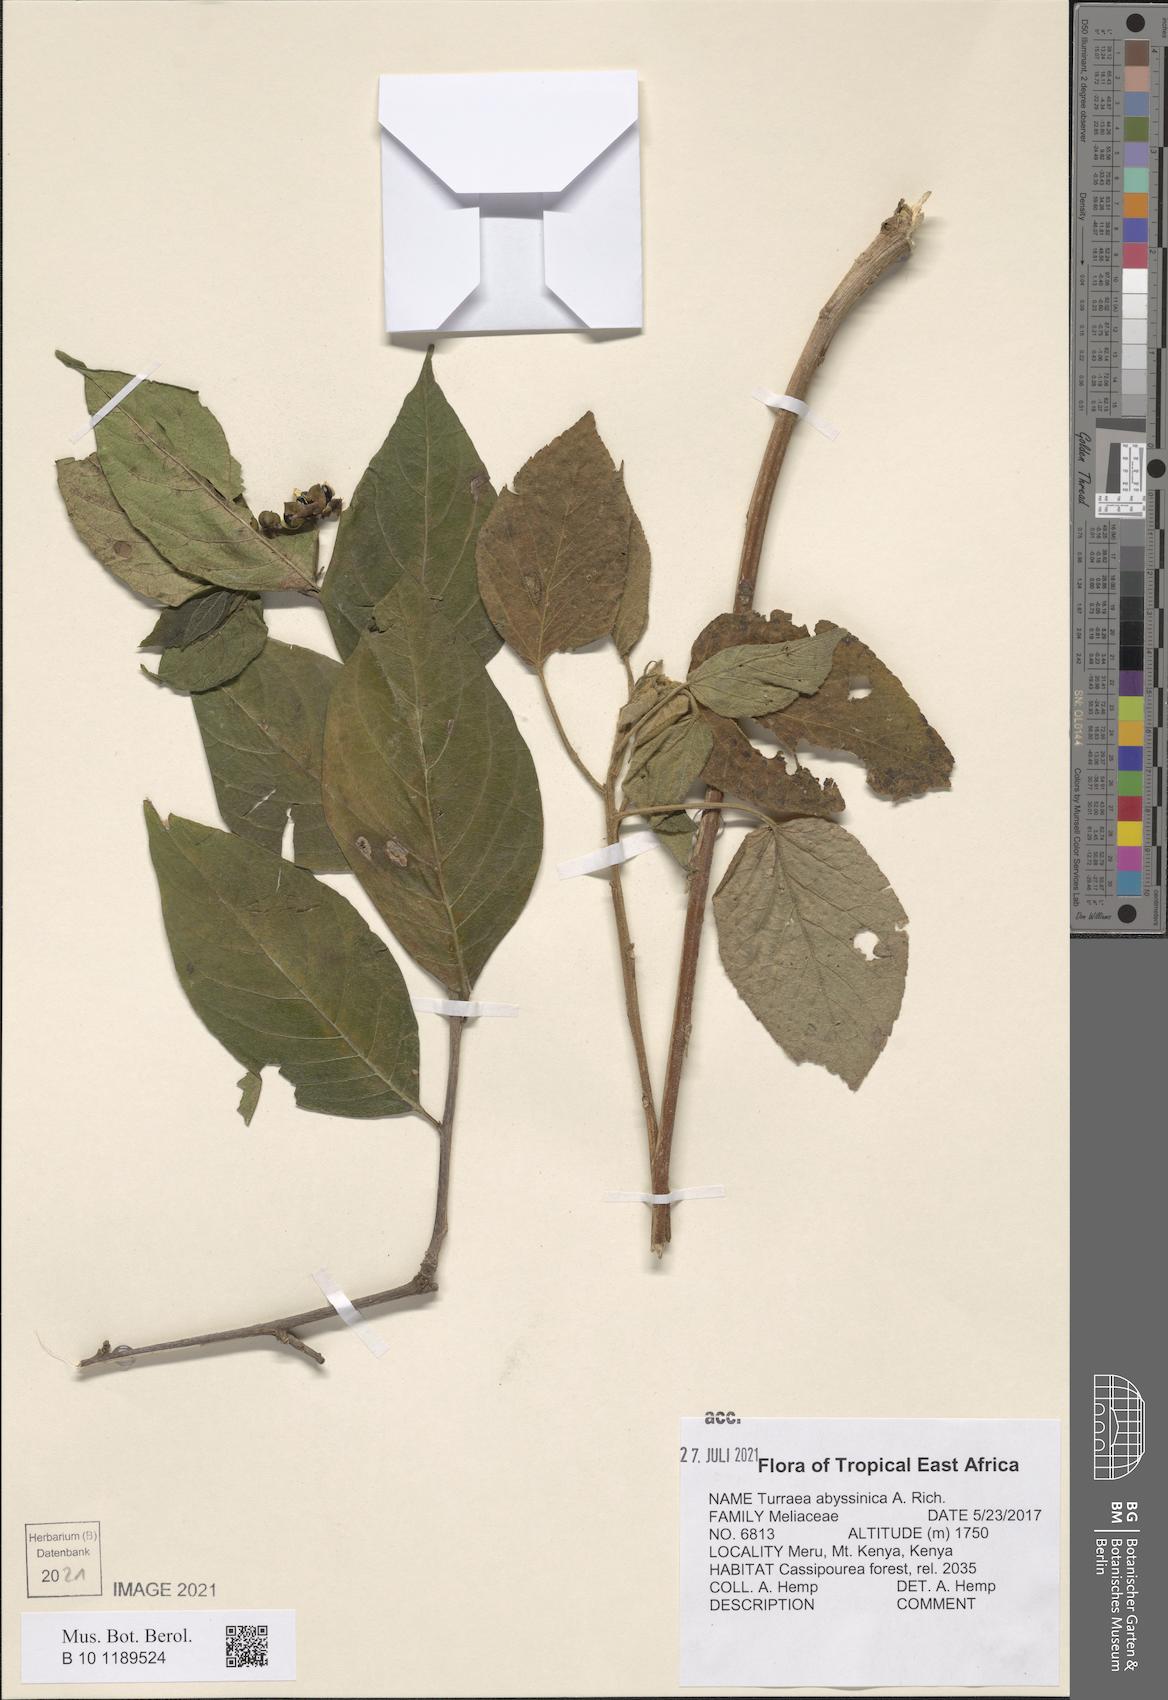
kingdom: Plantae
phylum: Tracheophyta
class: Magnoliopsida
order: Sapindales
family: Meliaceae
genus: Turraea
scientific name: Turraea abyssinica
